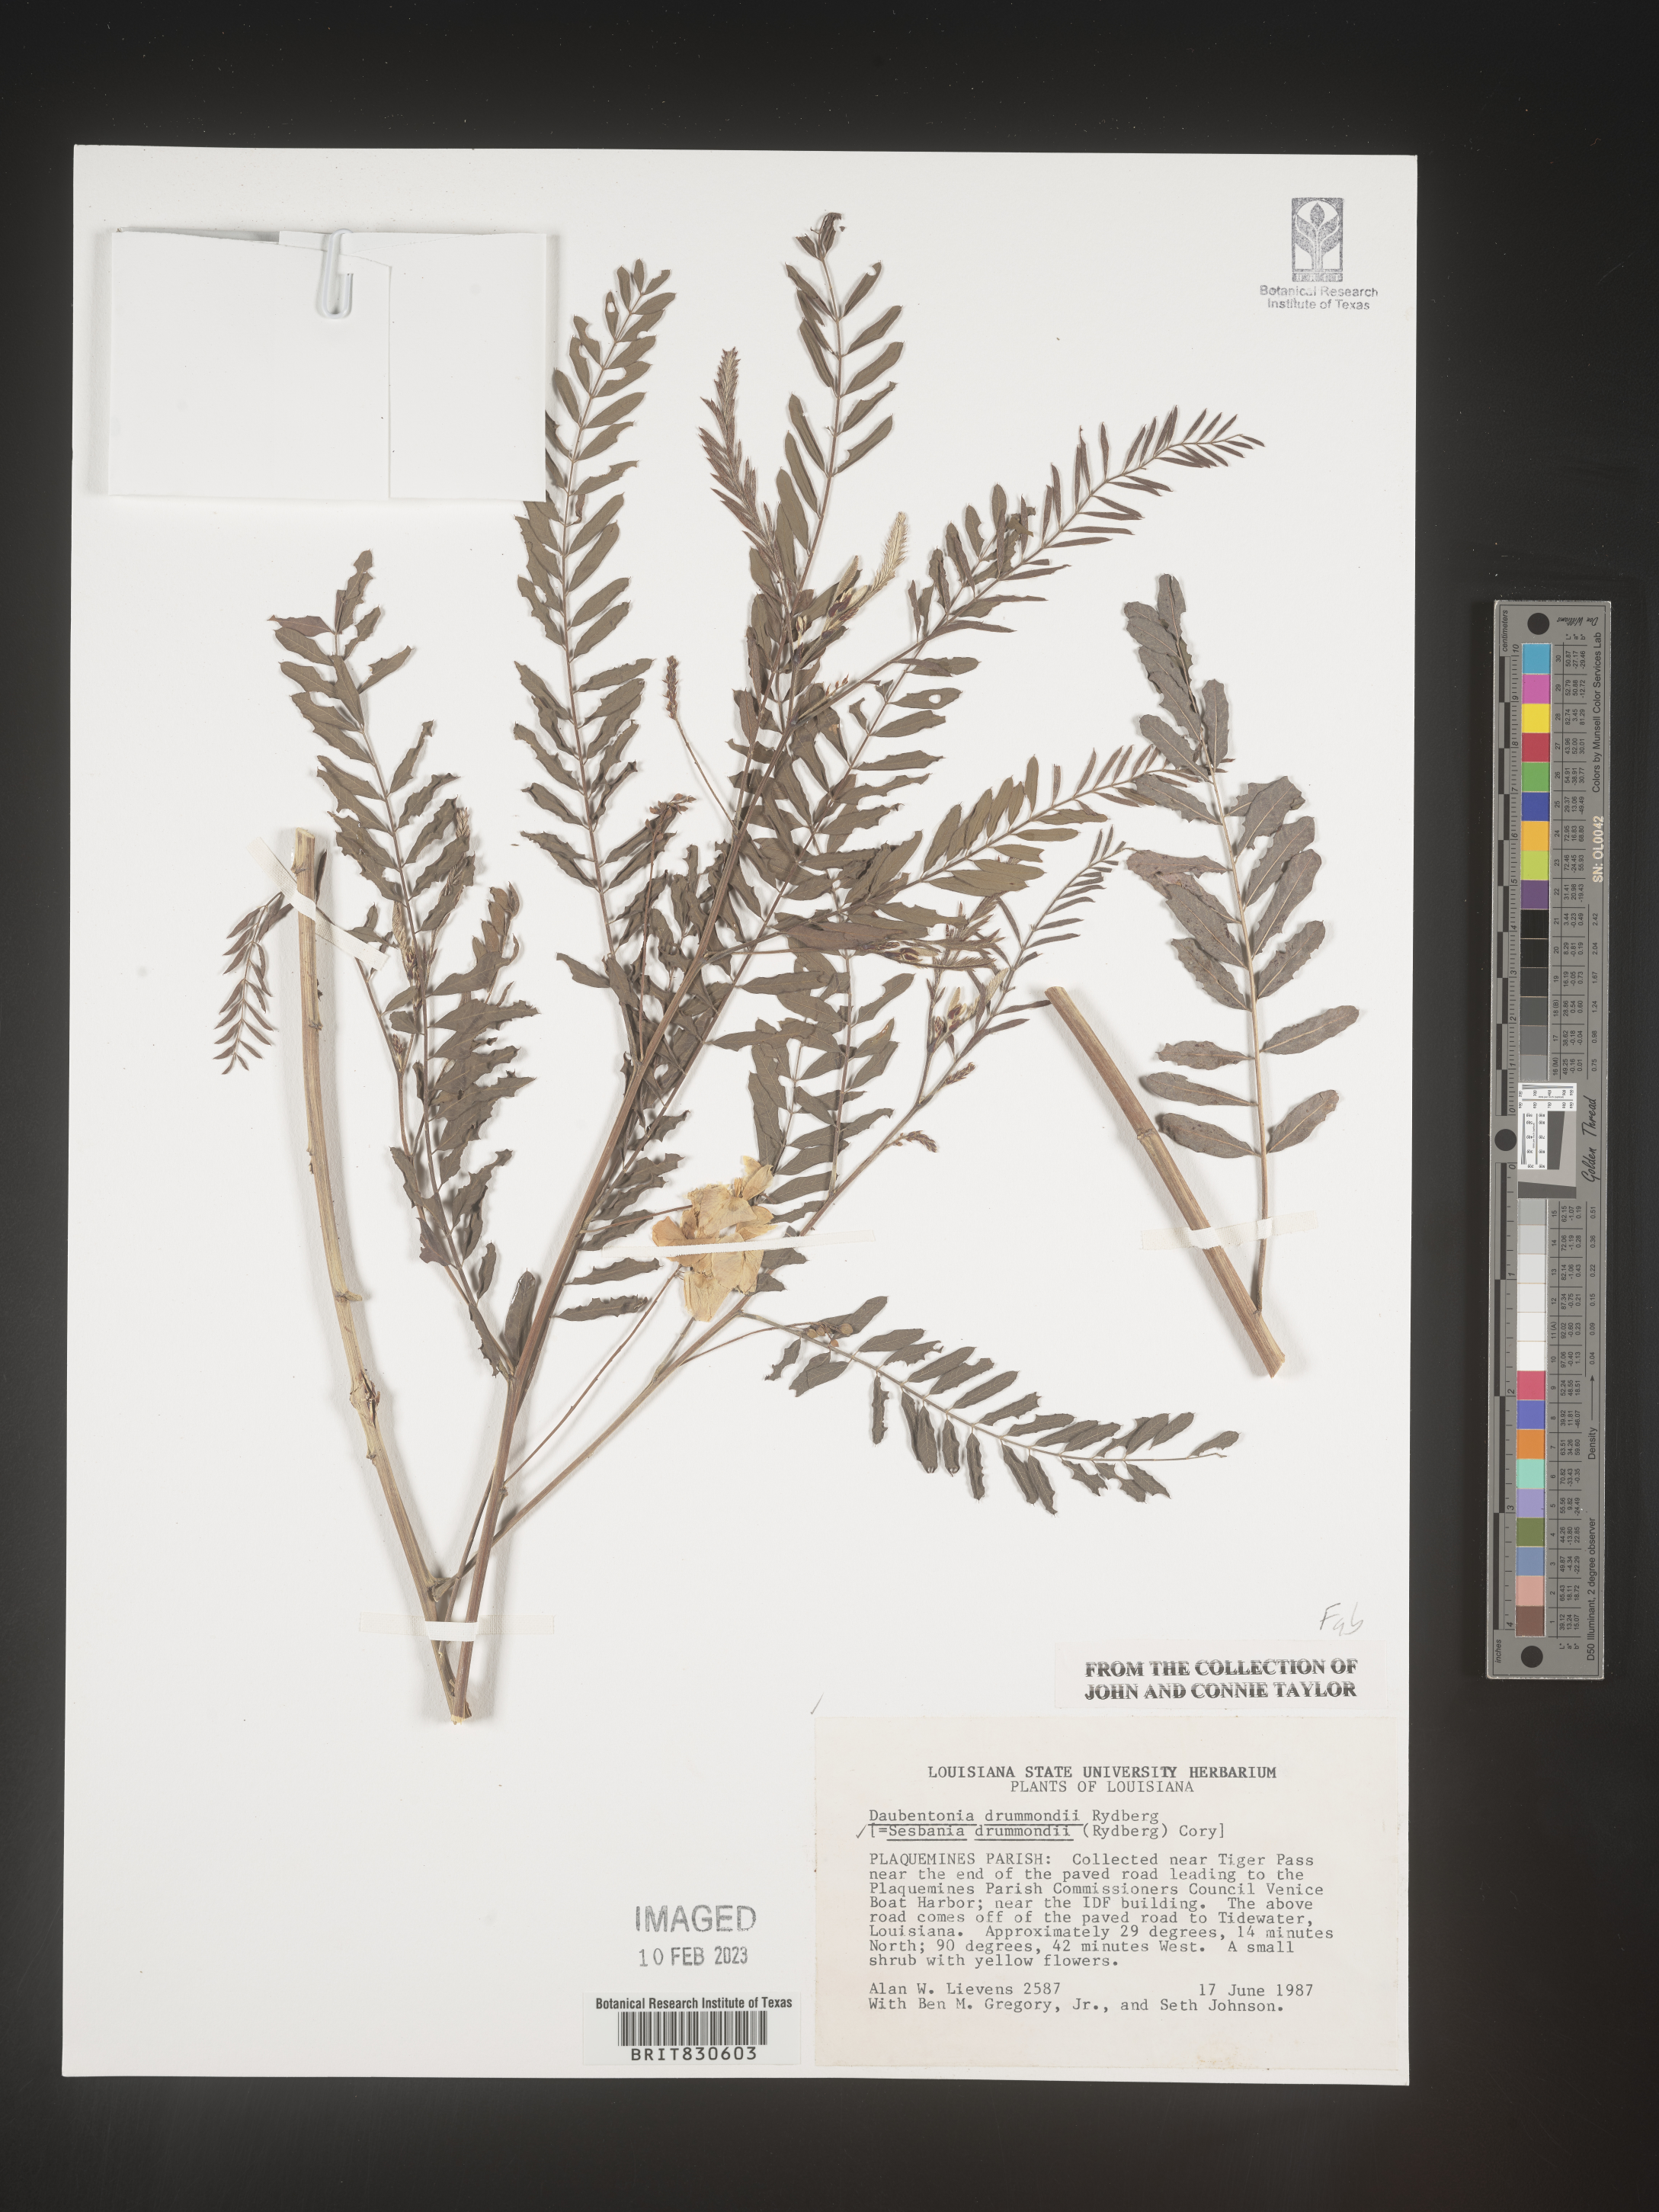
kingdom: Plantae
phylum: Tracheophyta
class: Magnoliopsida
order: Fabales
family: Fabaceae
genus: Sesbania
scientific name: Sesbania drummondii
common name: Poison-bean
